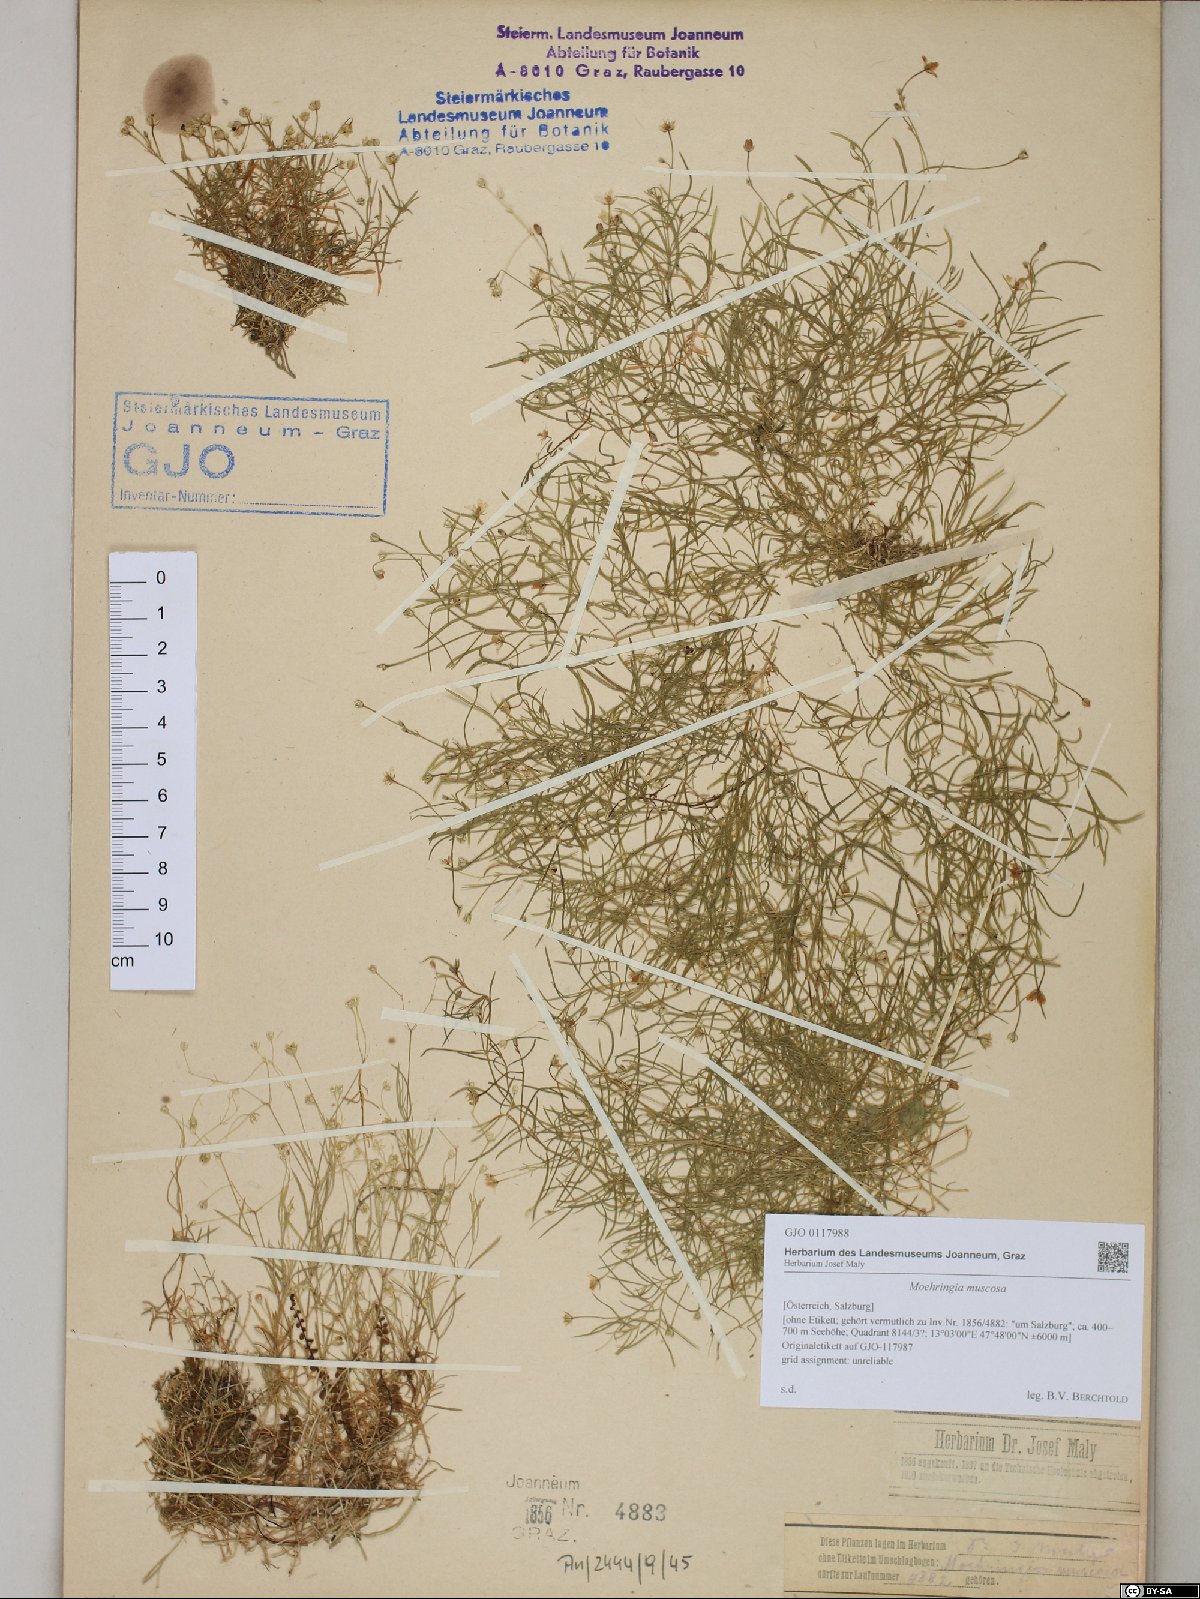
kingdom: Plantae
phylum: Tracheophyta
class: Magnoliopsida
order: Caryophyllales
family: Caryophyllaceae
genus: Moehringia
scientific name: Moehringia muscosa
